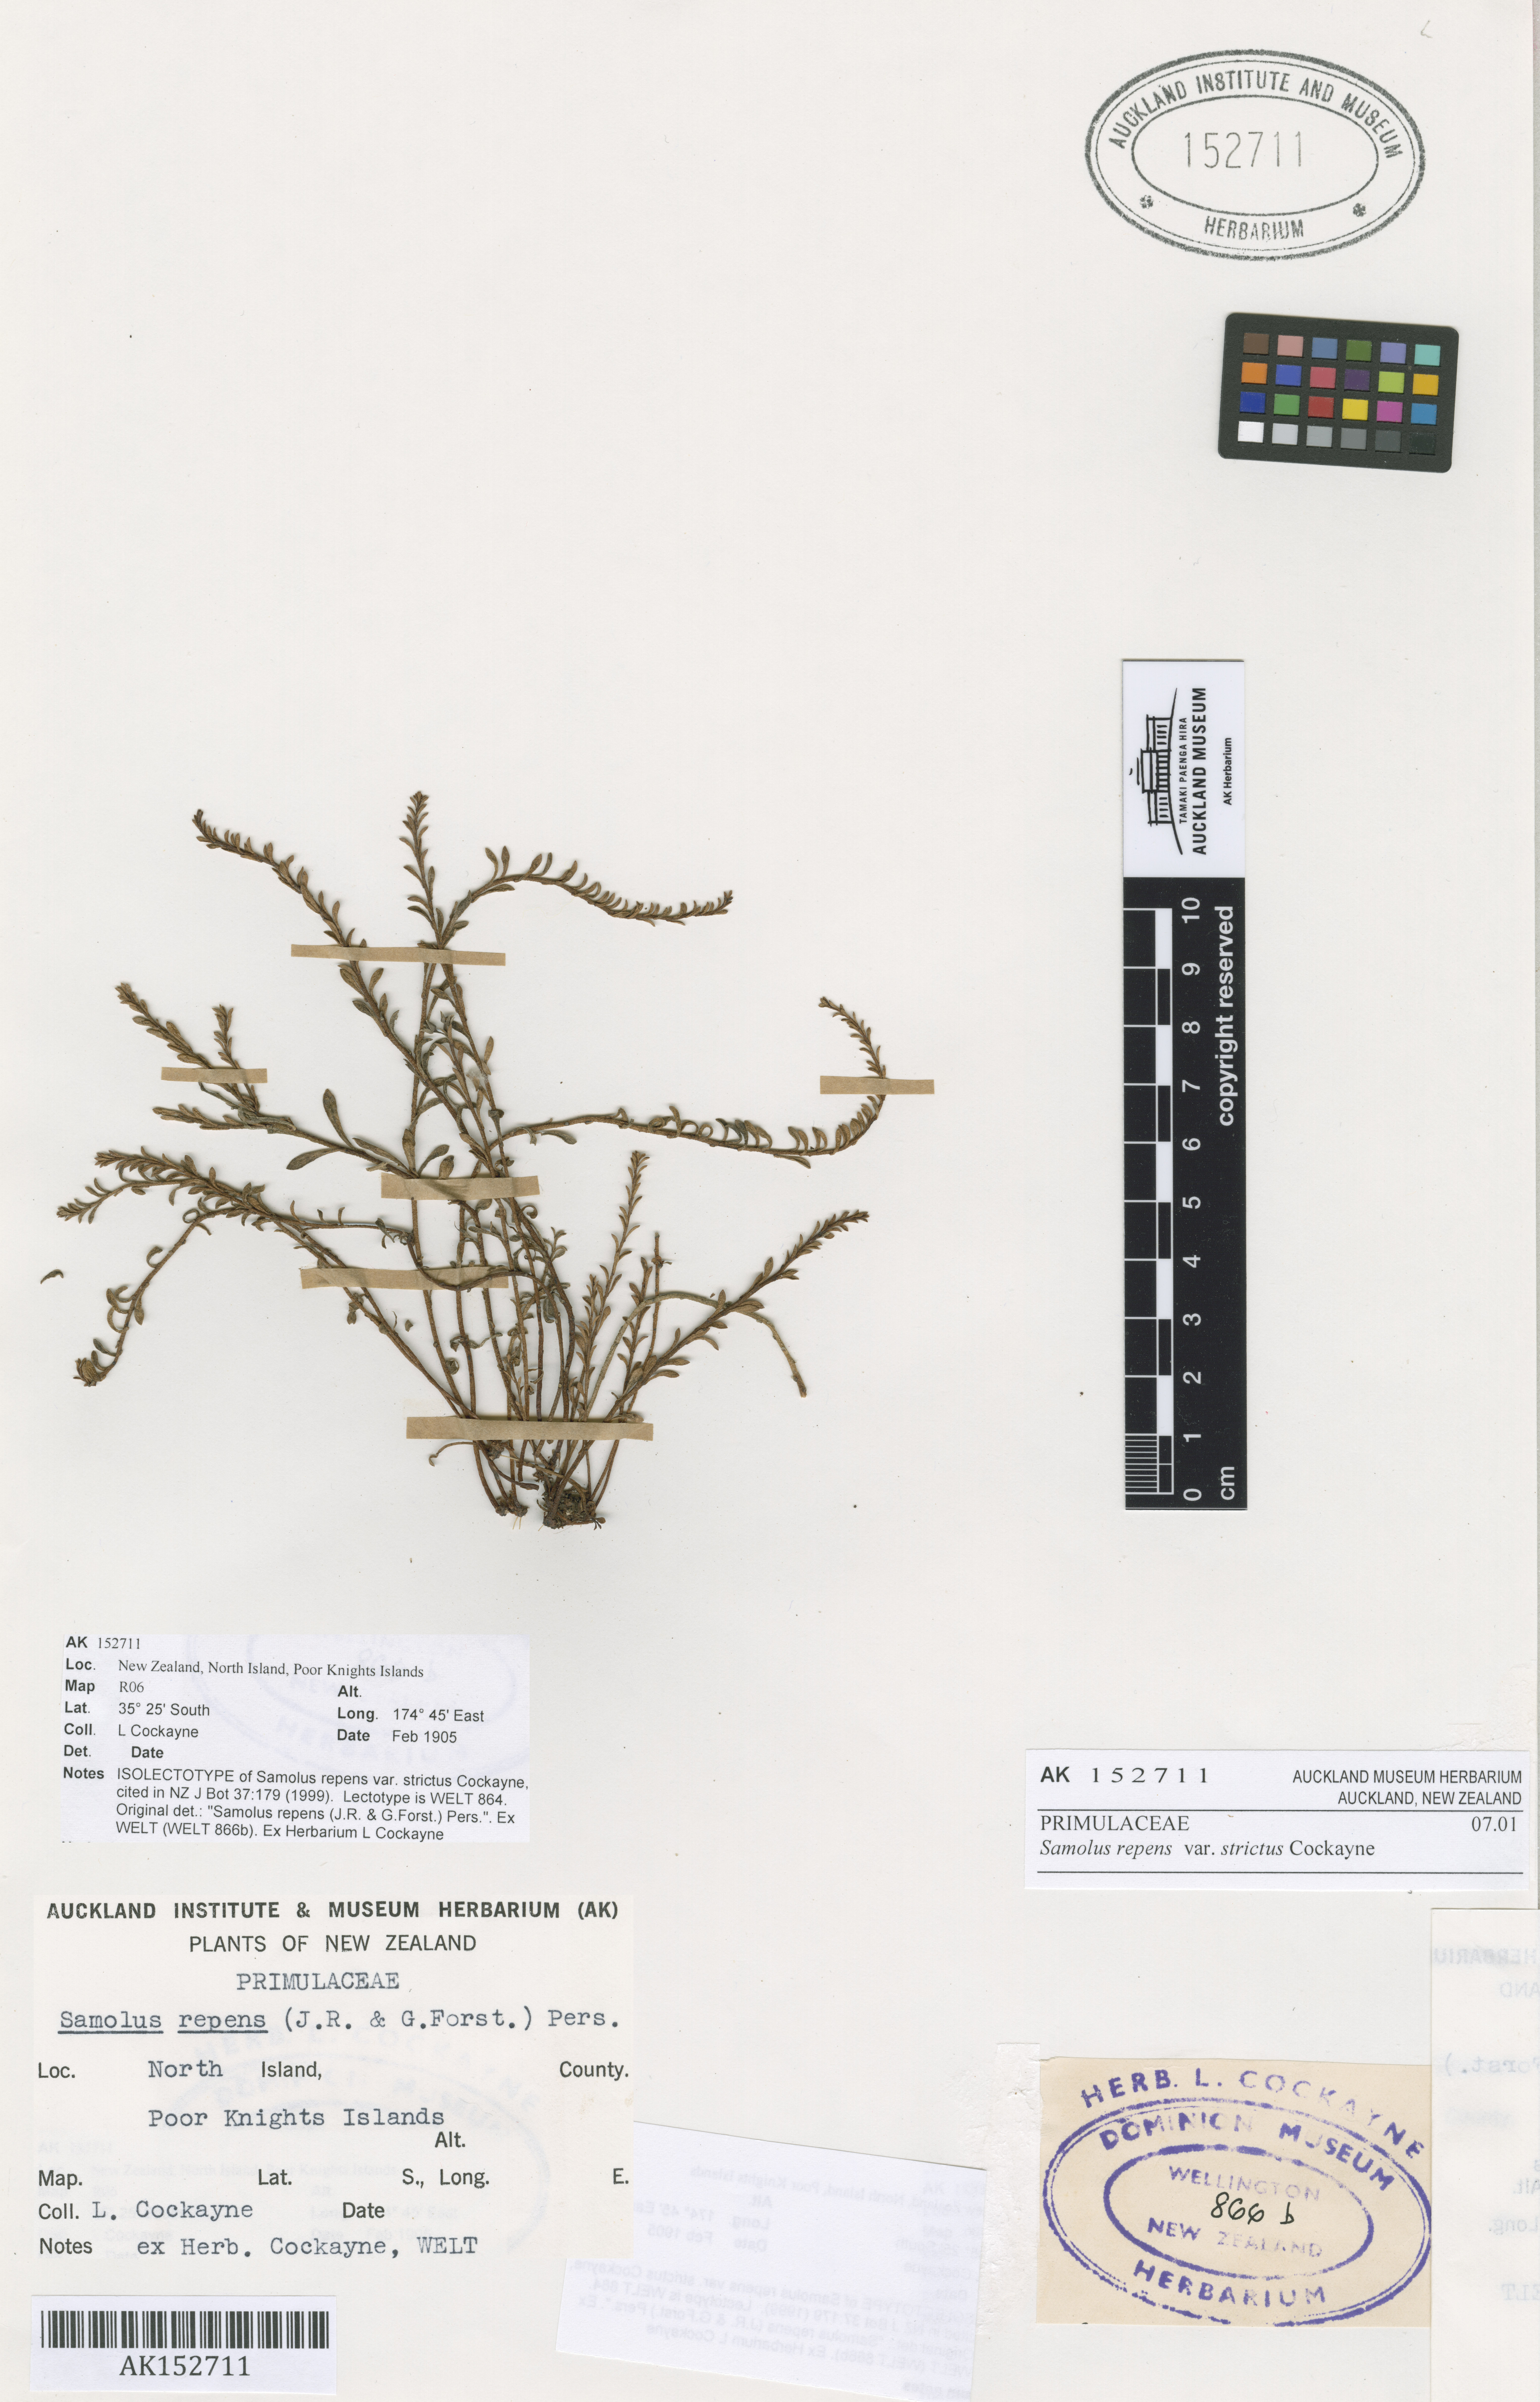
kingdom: Plantae
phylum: Tracheophyta
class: Magnoliopsida
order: Ericales
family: Primulaceae
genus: Samolus
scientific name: Samolus repens
